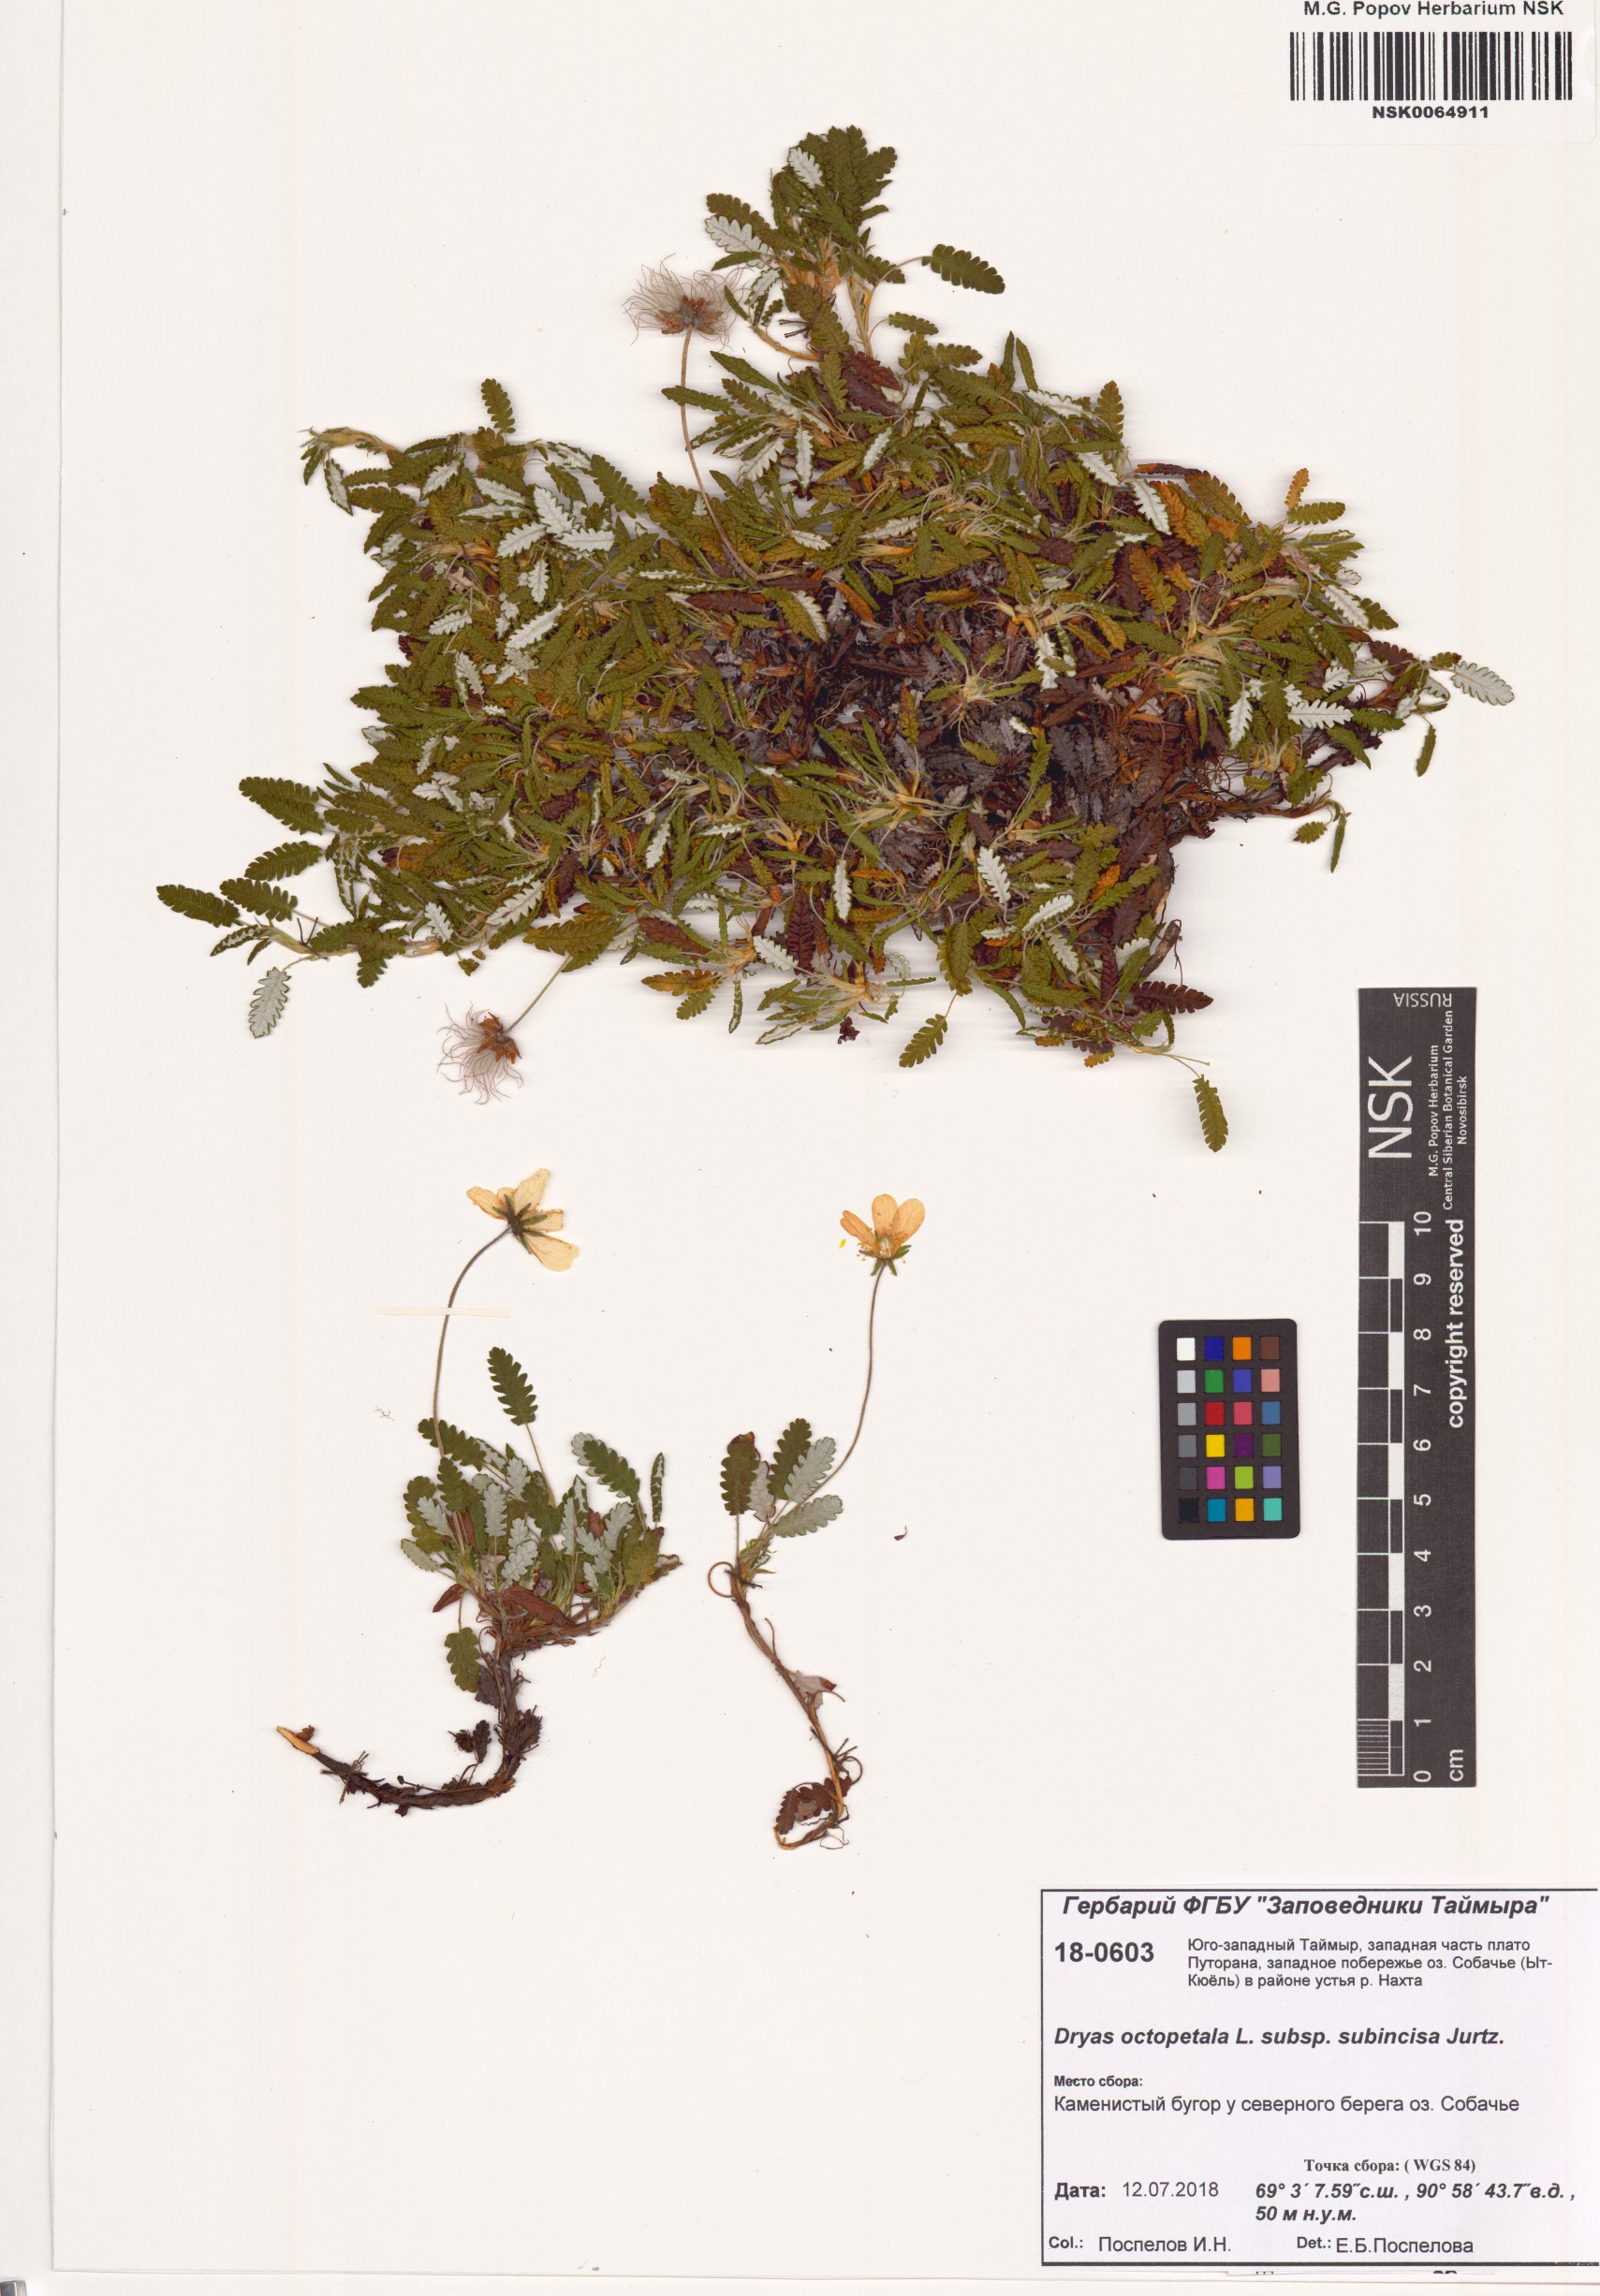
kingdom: Plantae
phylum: Tracheophyta
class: Magnoliopsida
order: Rosales
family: Rosaceae
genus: Dryas
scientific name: Dryas octopetala
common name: Eight-petal mountain-avens
